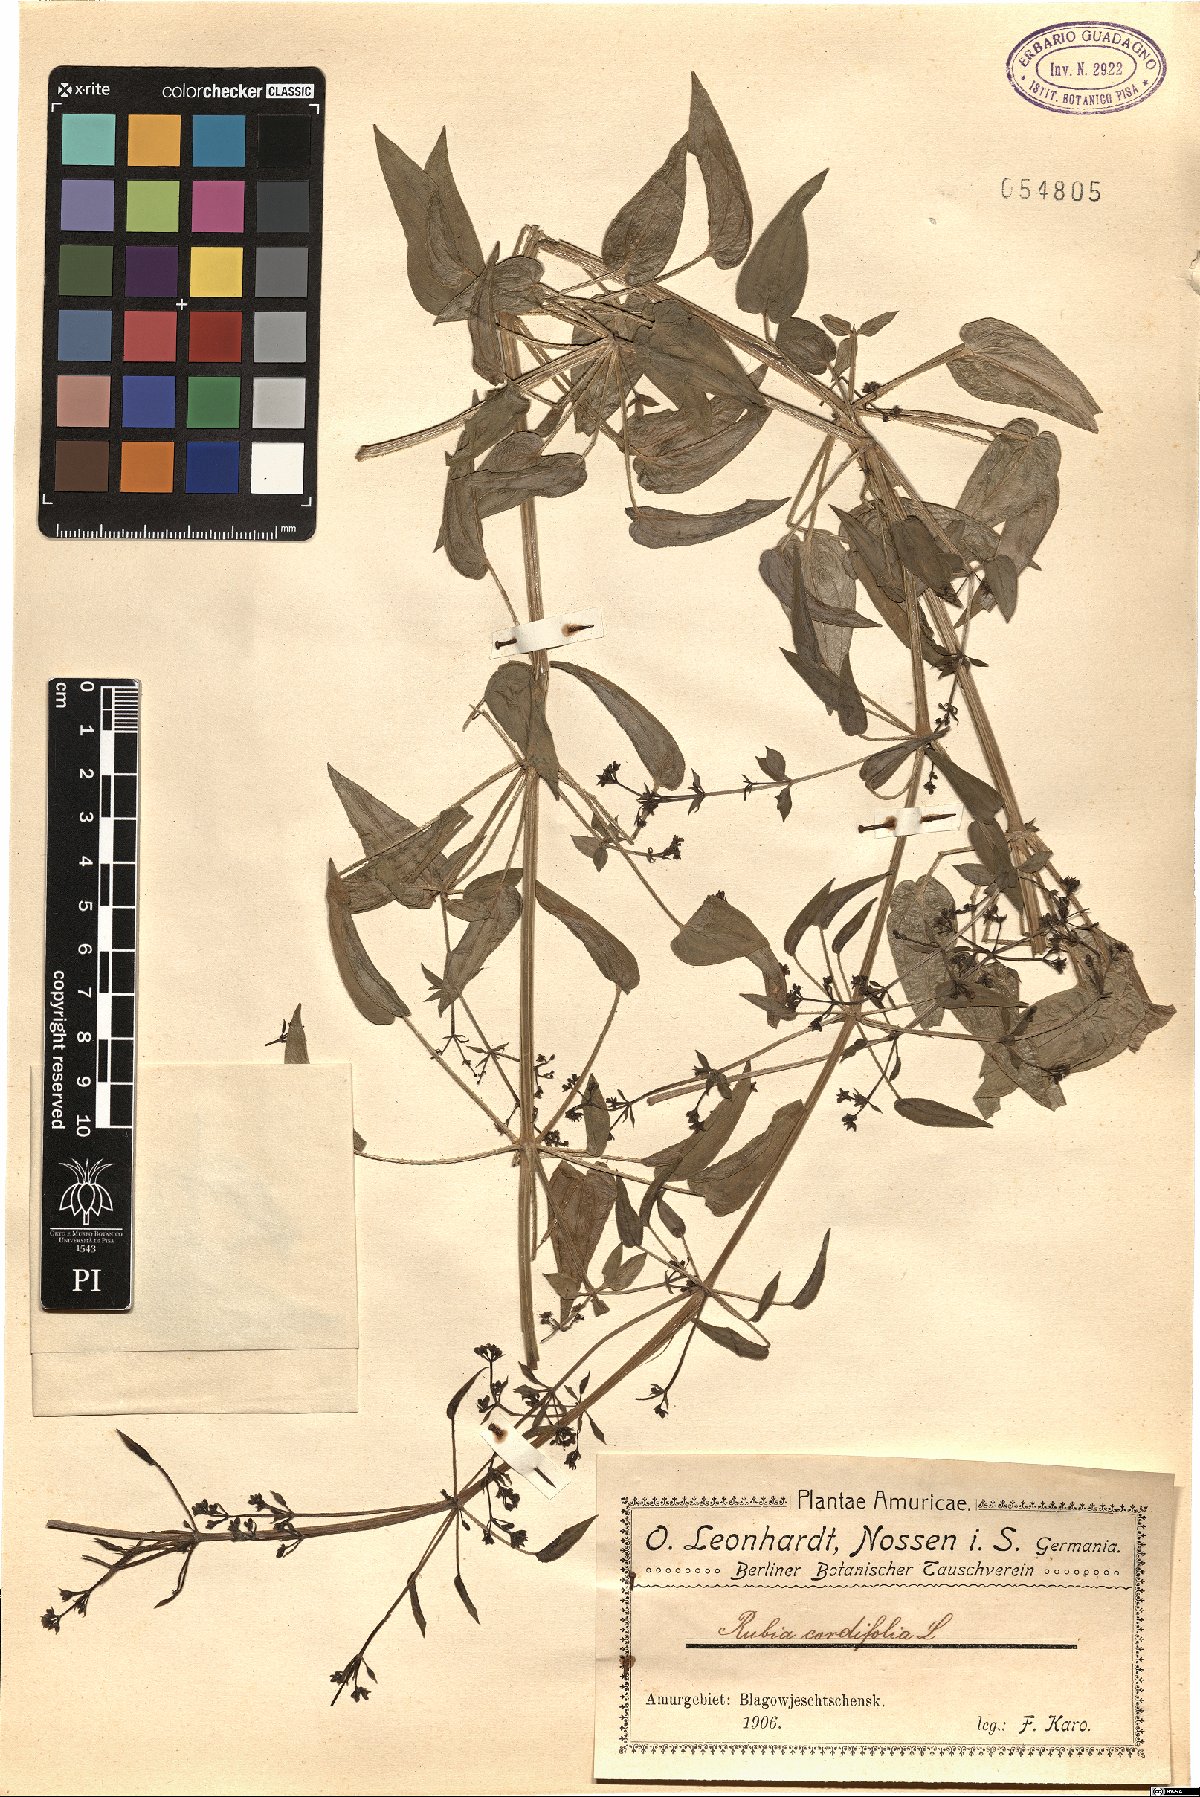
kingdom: Plantae
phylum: Tracheophyta
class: Magnoliopsida
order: Gentianales
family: Rubiaceae
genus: Rubia
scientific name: Rubia cordifolia
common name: Indian madder
